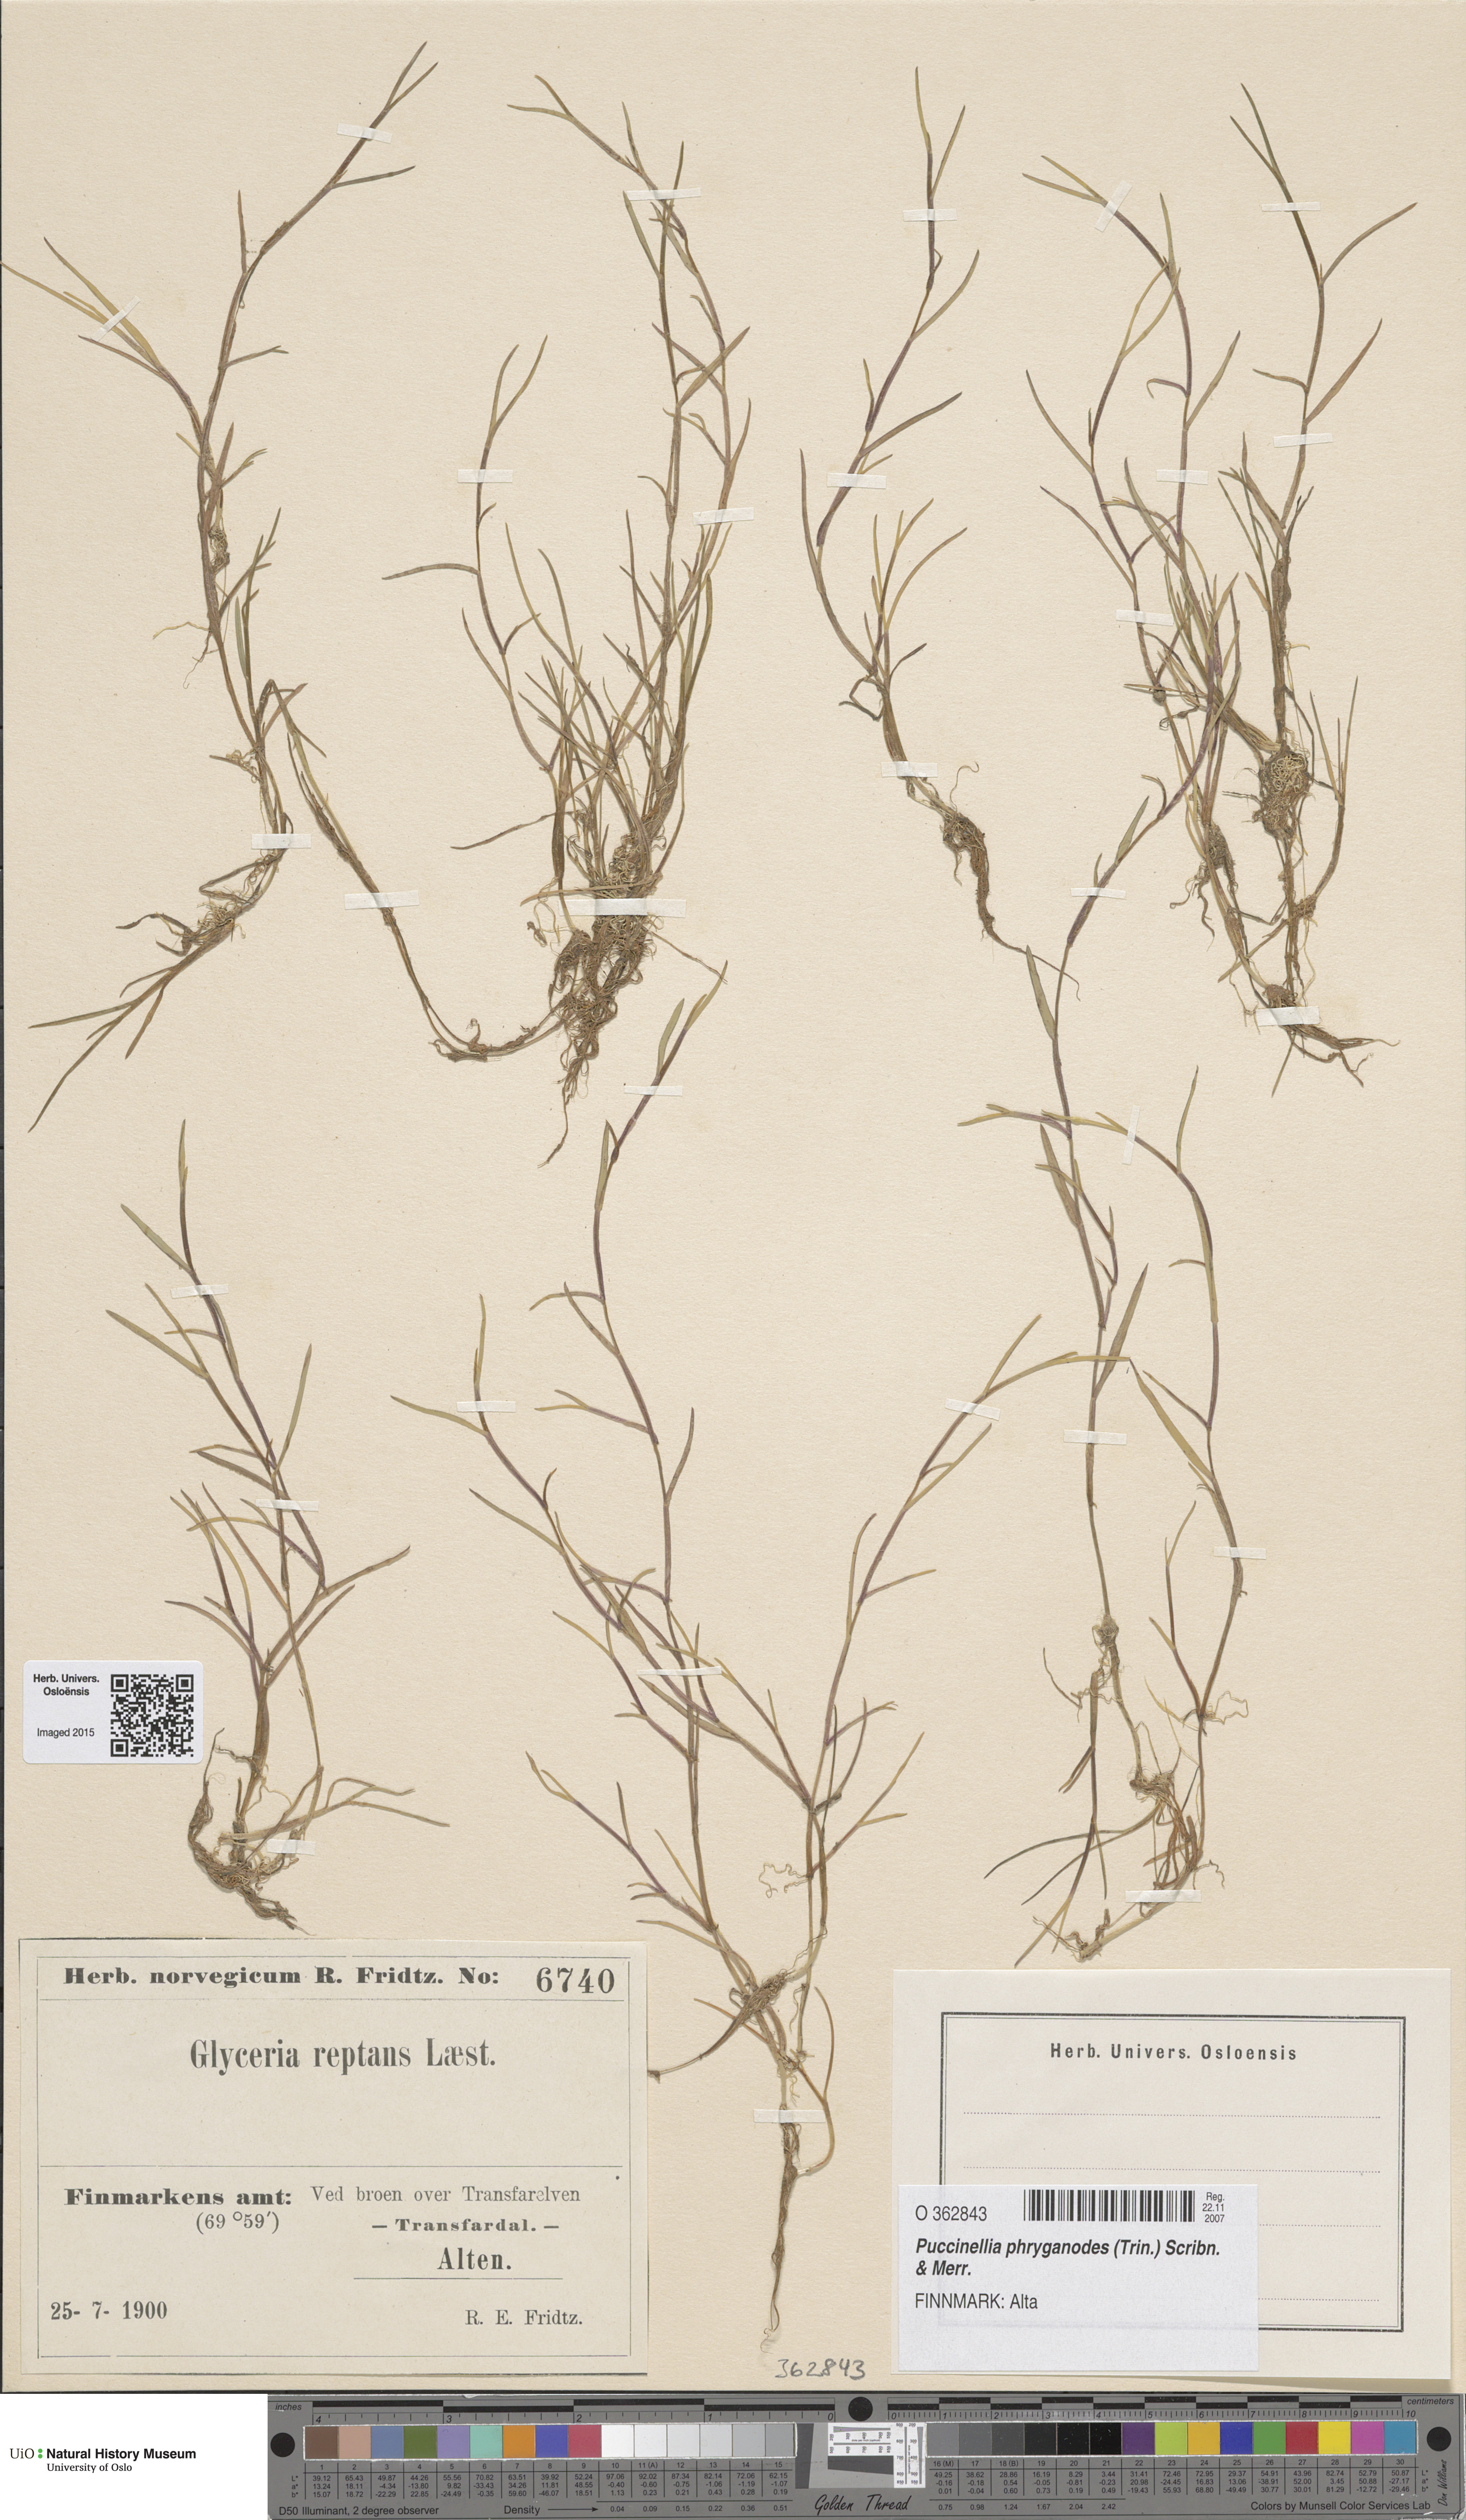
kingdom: Plantae
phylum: Tracheophyta
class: Liliopsida
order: Poales
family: Poaceae
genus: Puccinellia
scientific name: Puccinellia phryganodes
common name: Creeping alkaligrass
